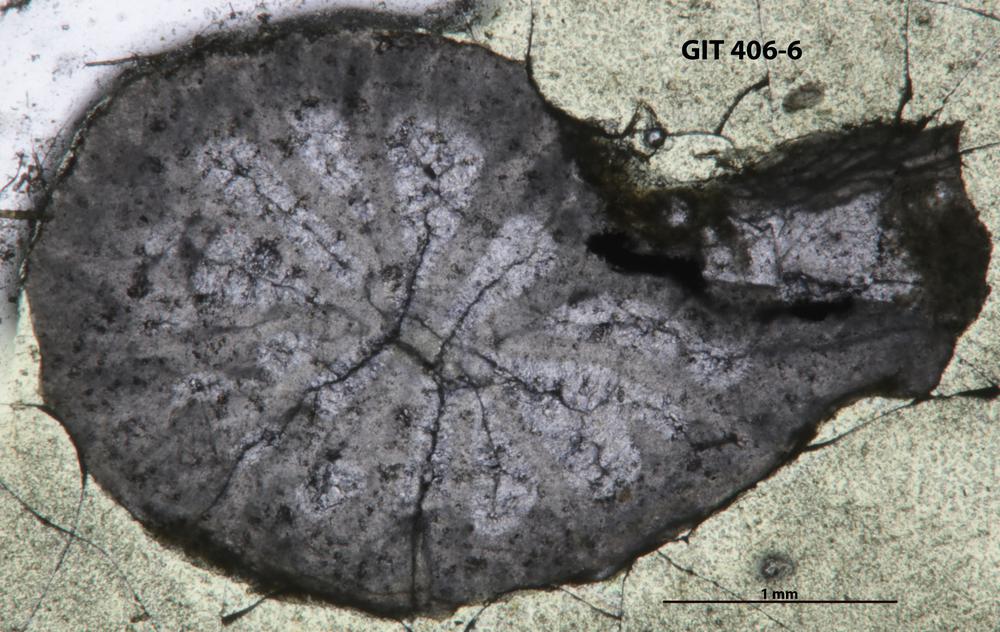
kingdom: Animalia
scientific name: Animalia
